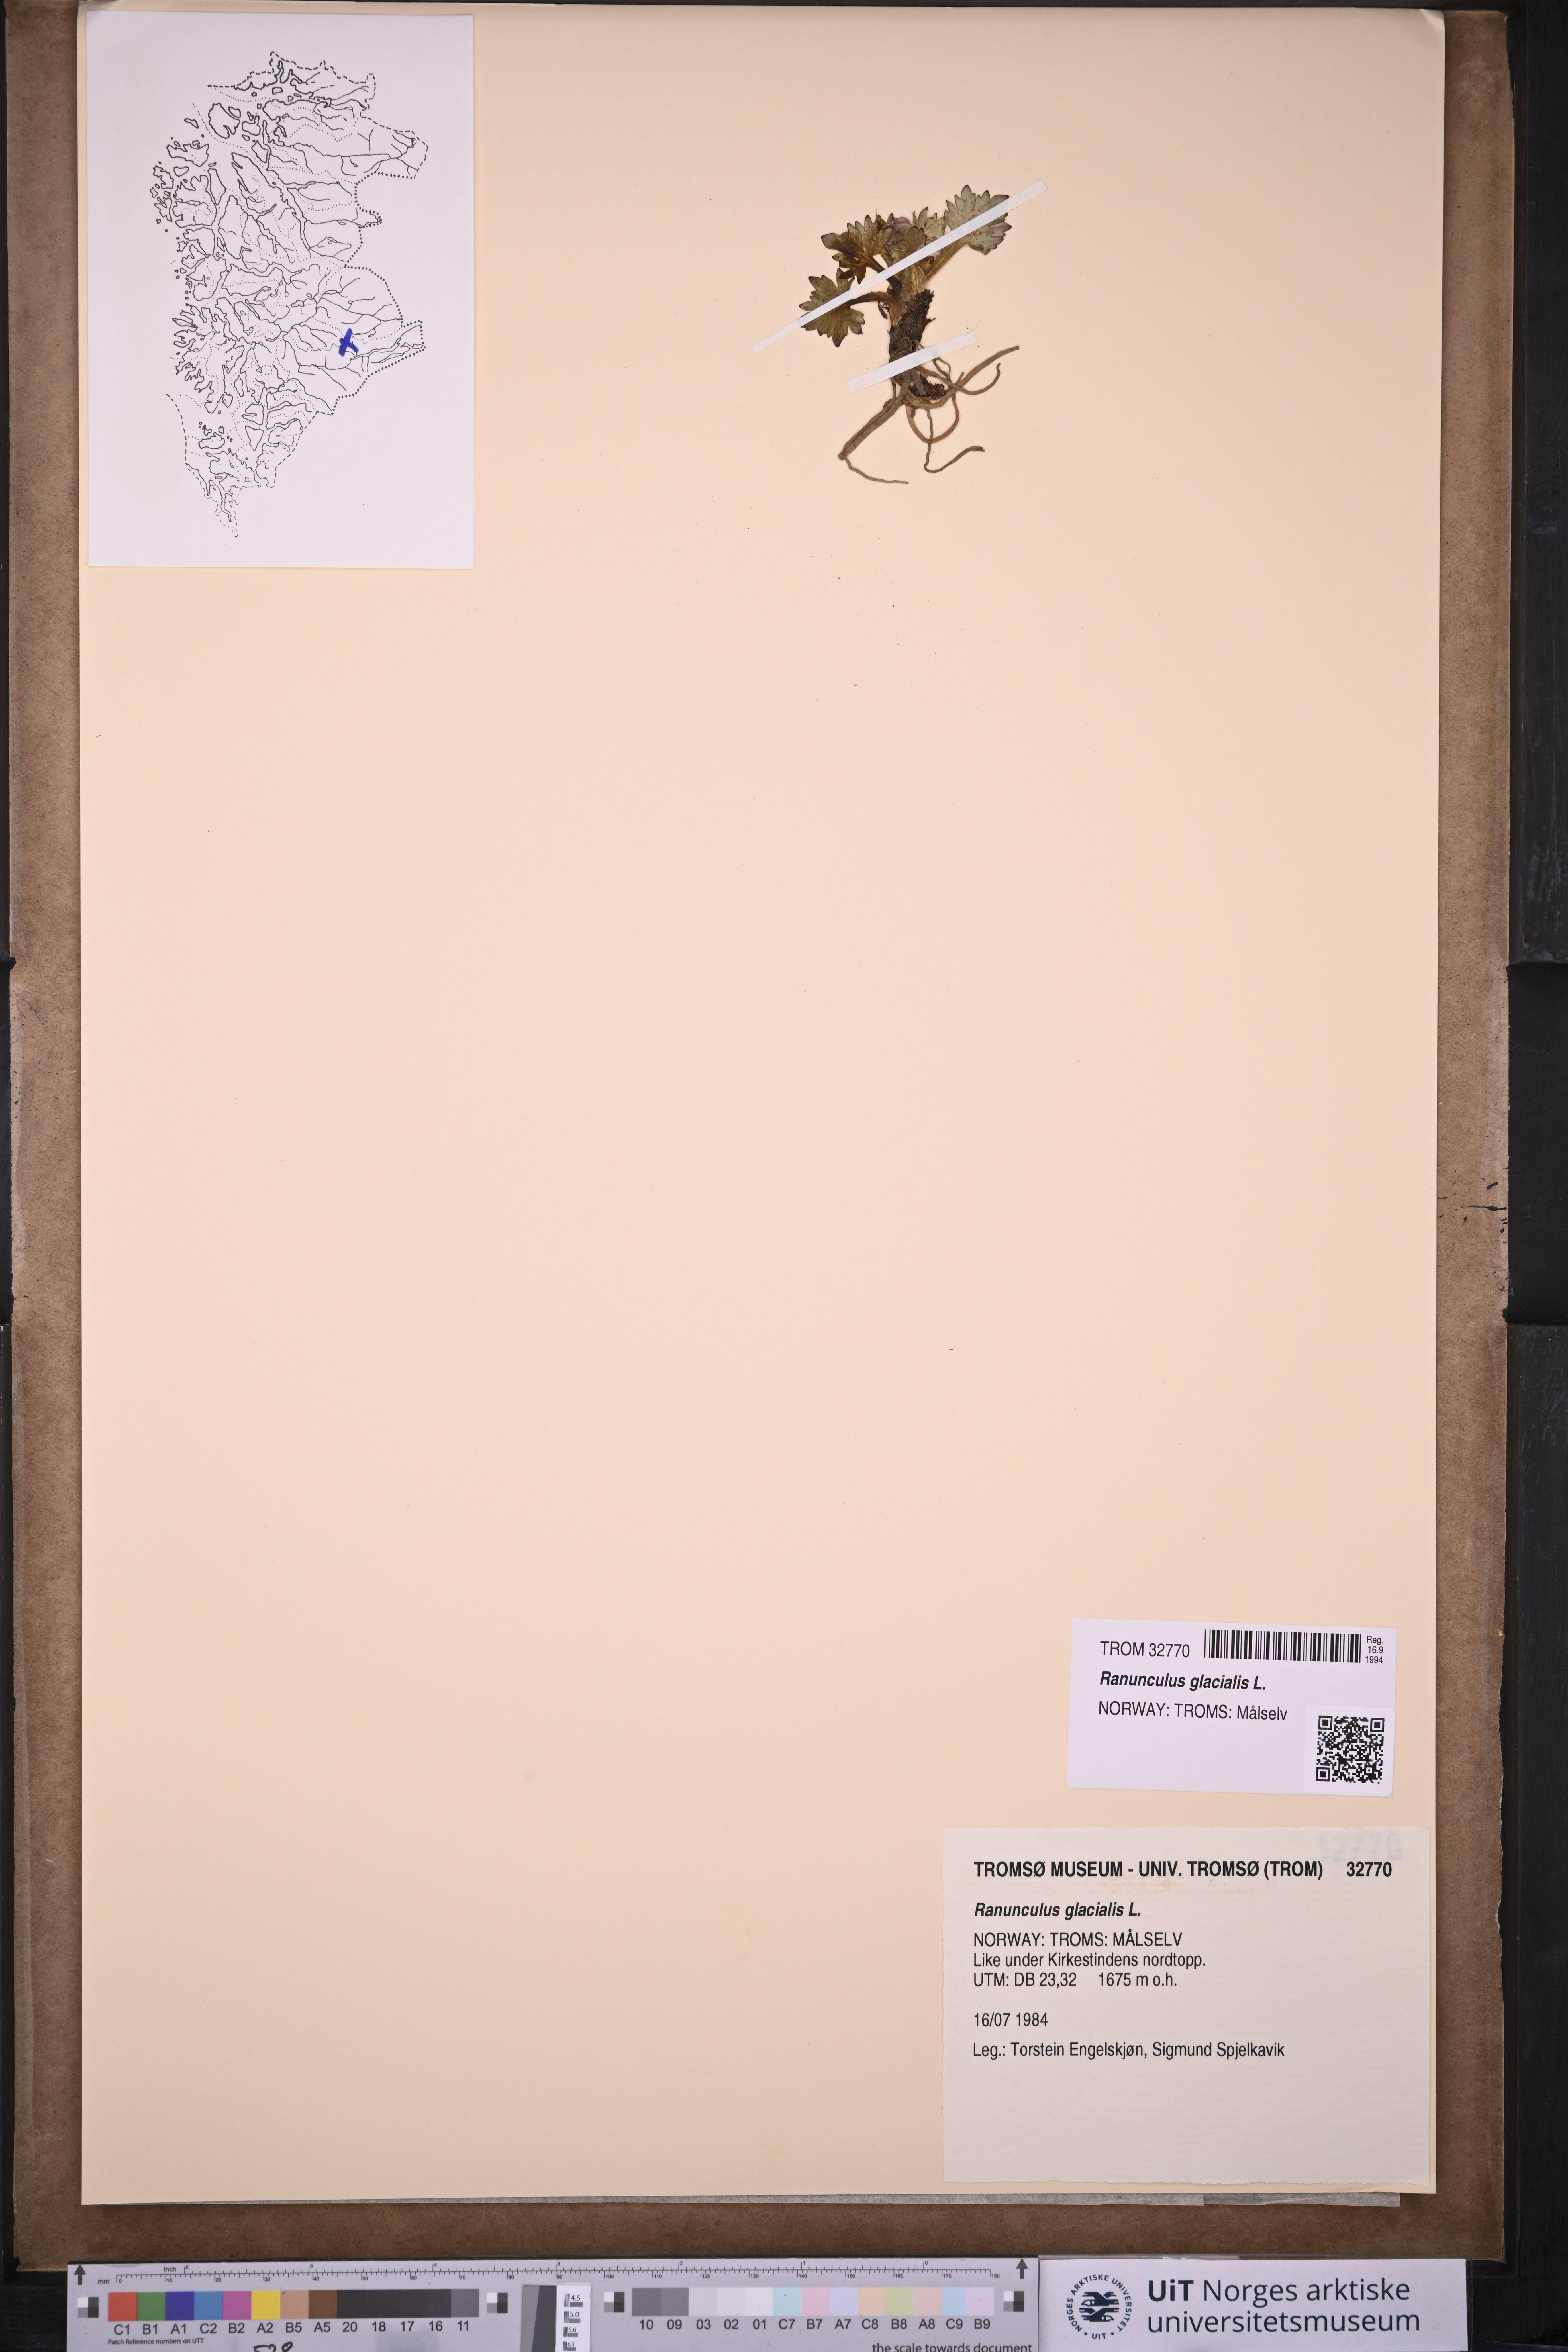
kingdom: Plantae
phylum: Tracheophyta
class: Magnoliopsida
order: Ranunculales
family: Ranunculaceae
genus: Ranunculus
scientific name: Ranunculus glacialis
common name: Glacier buttercup
